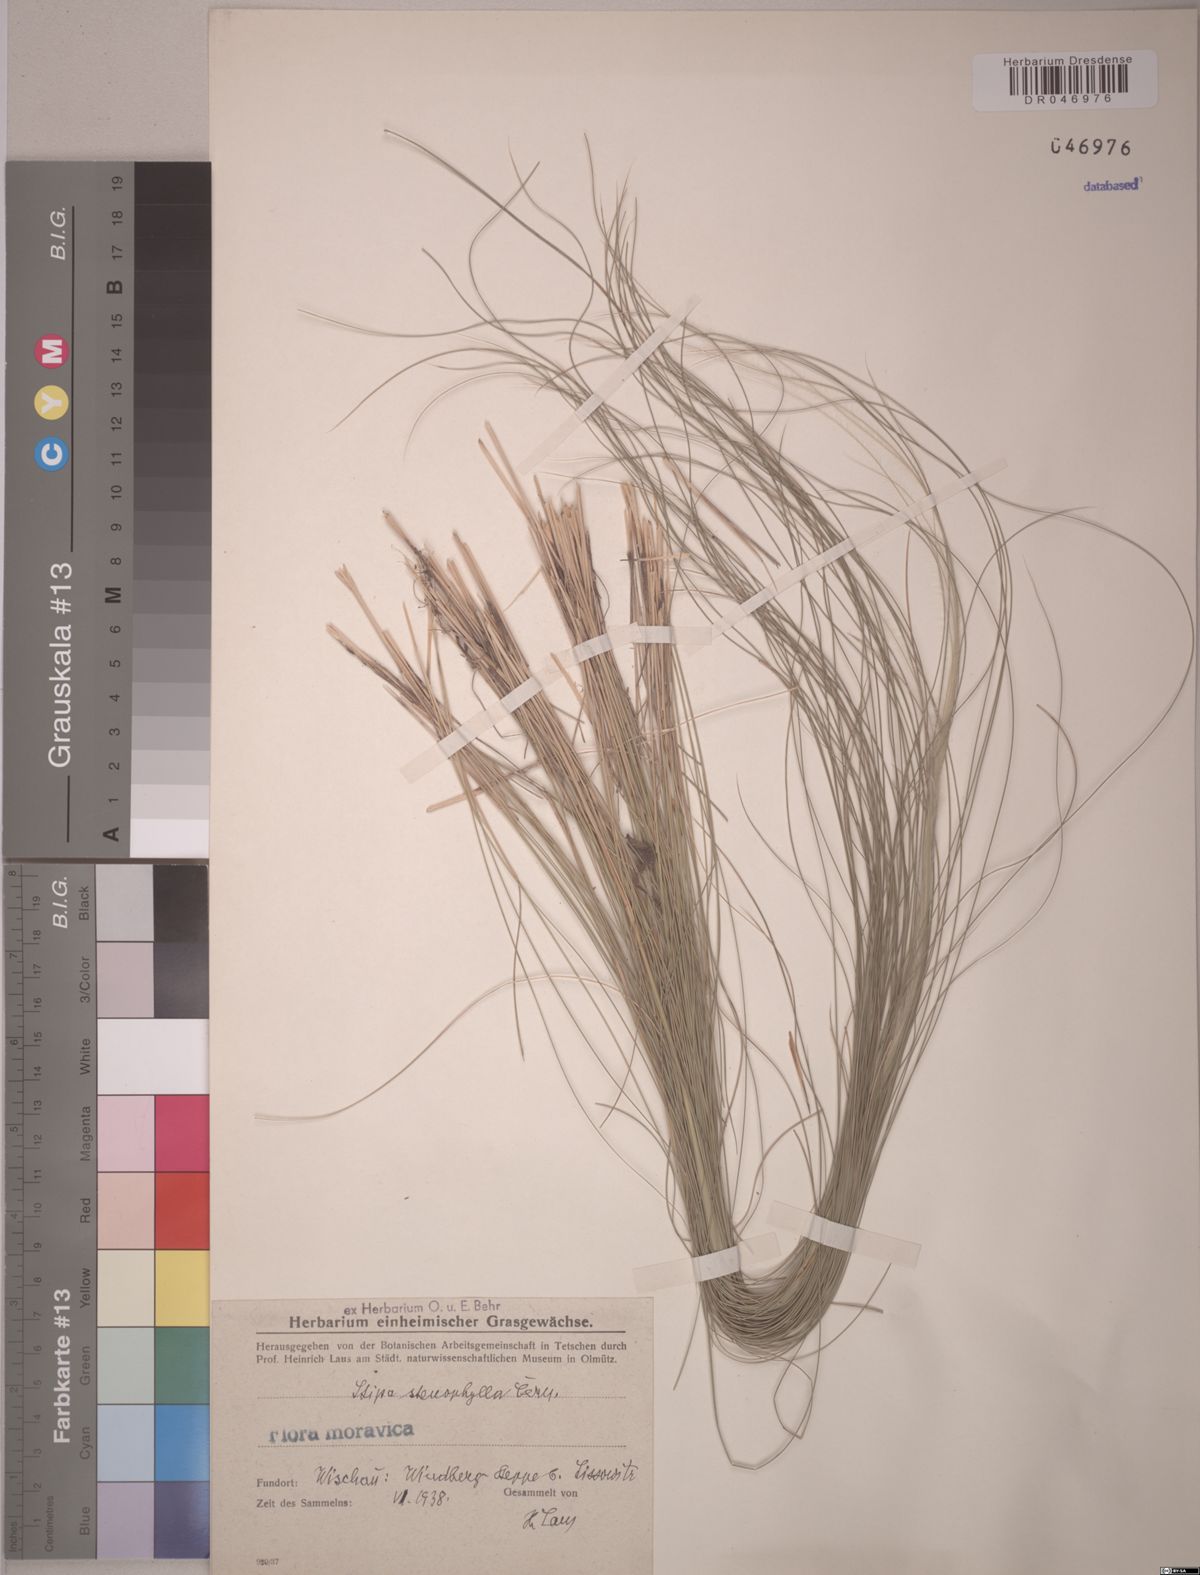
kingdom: Plantae
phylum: Tracheophyta
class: Liliopsida
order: Poales
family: Poaceae
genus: Stipa
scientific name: Stipa tirsa
